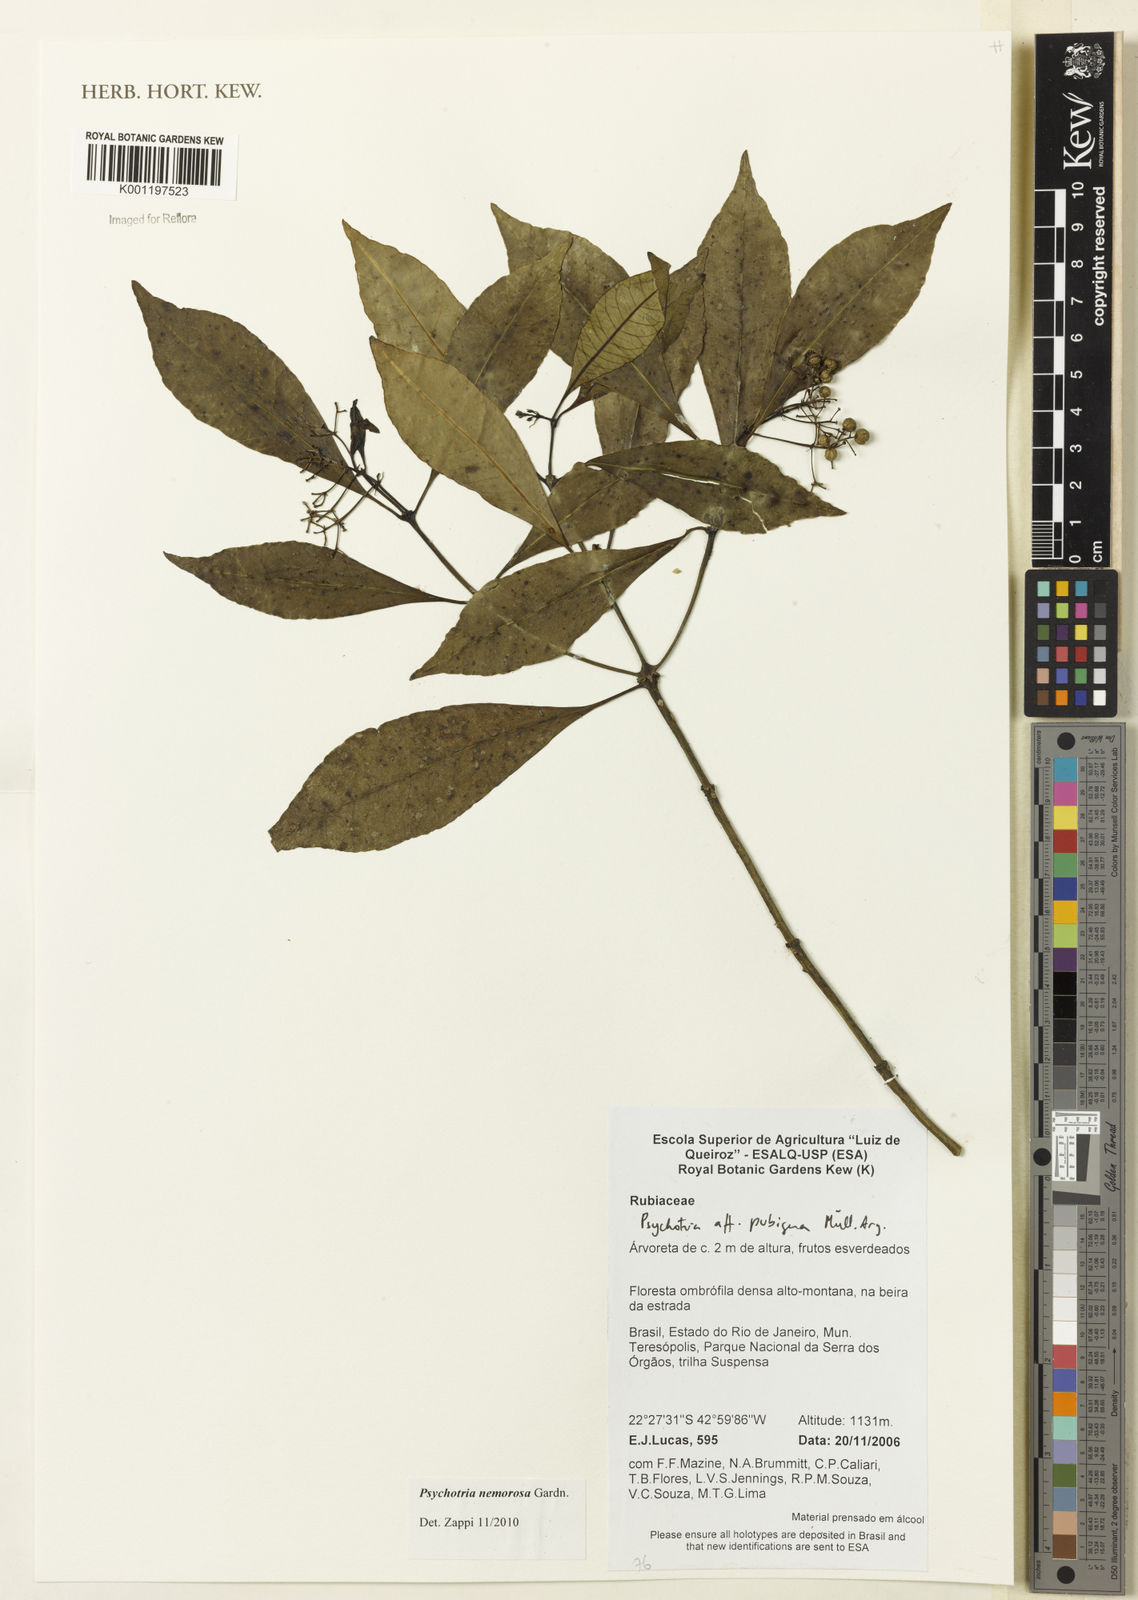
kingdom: Plantae
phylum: Tracheophyta
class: Magnoliopsida
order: Gentianales
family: Rubiaceae
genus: Psychotria
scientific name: Psychotria nemorosa
